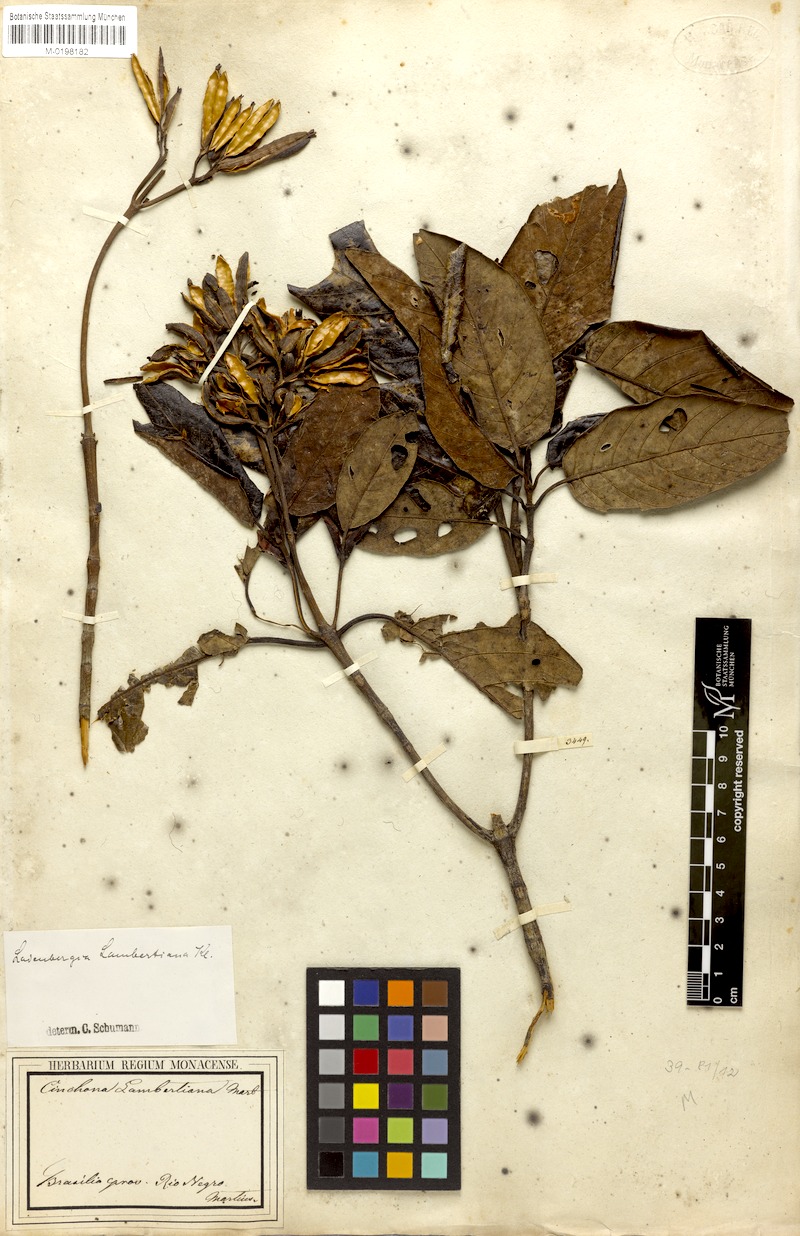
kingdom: Plantae
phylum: Tracheophyta
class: Magnoliopsida
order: Gentianales
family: Rubiaceae
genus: Ladenbergia
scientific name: Ladenbergia lambertiana
